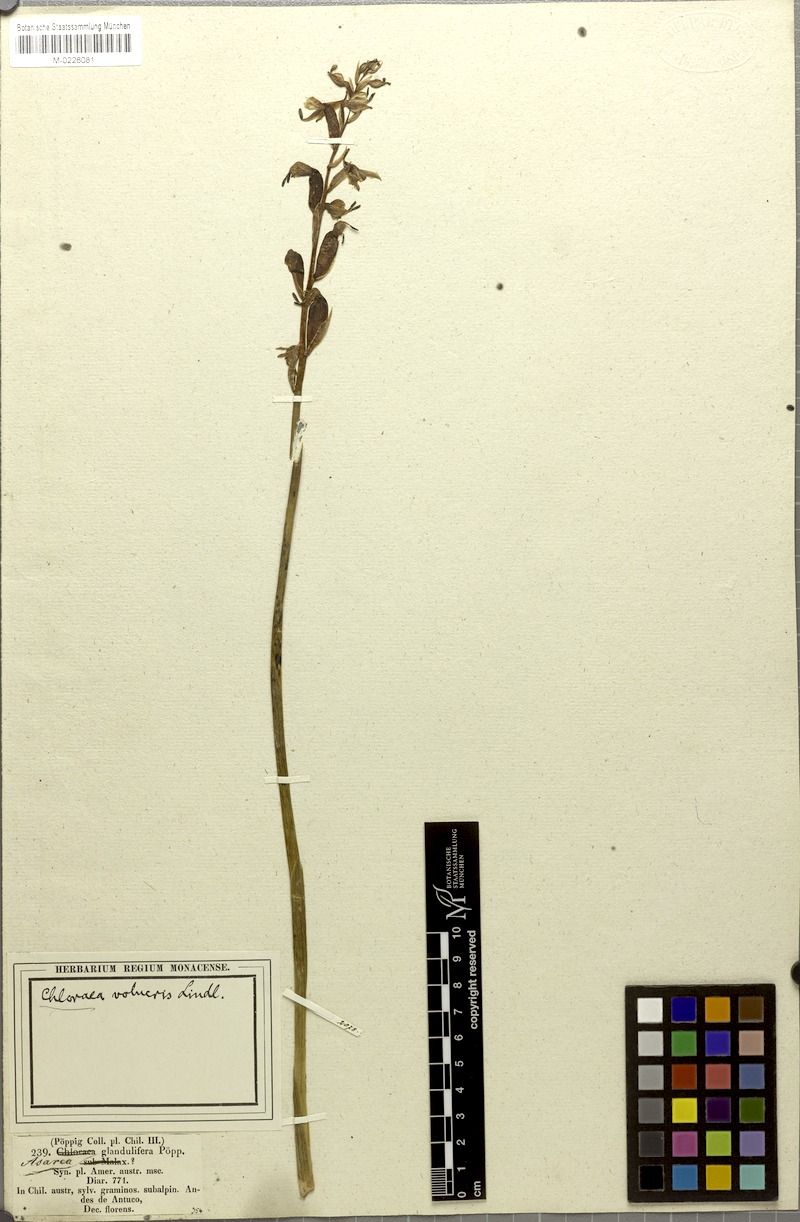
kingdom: Plantae
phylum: Tracheophyta
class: Liliopsida
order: Asparagales
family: Orchidaceae
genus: Gavilea
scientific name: Gavilea glandulifera
